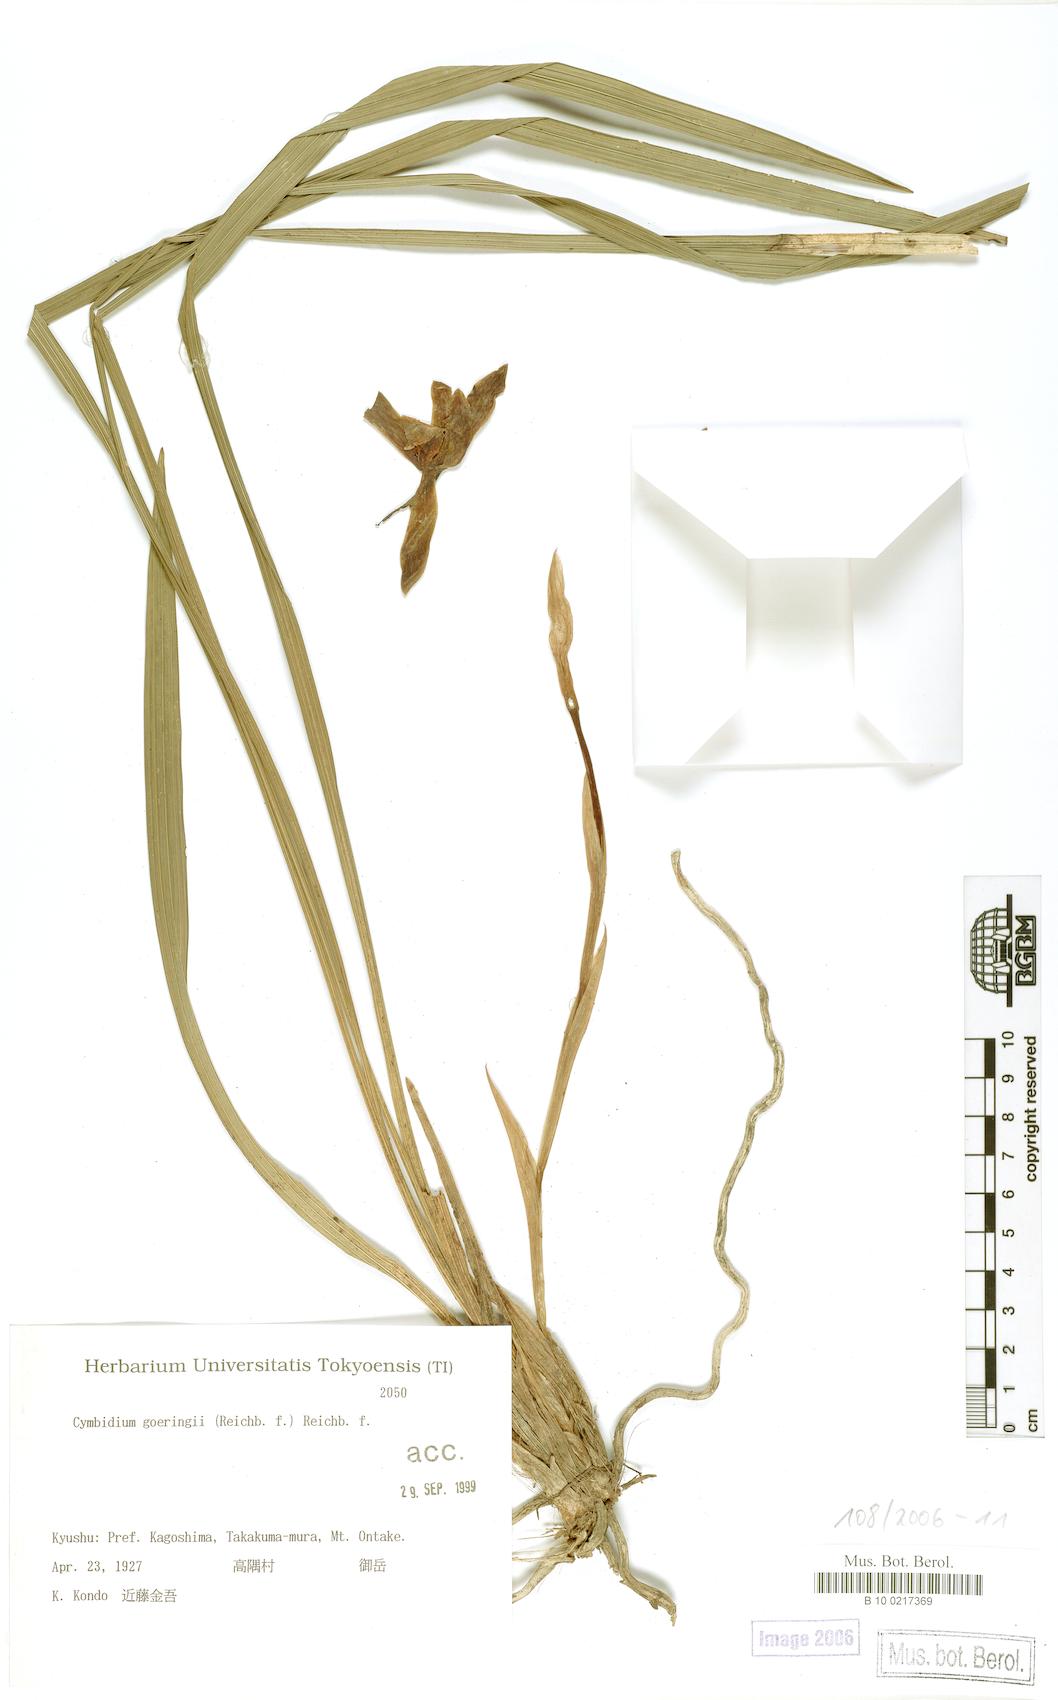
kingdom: Plantae
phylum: Tracheophyta
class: Liliopsida
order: Asparagales
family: Orchidaceae
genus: Cymbidium
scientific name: Cymbidium goeringii
